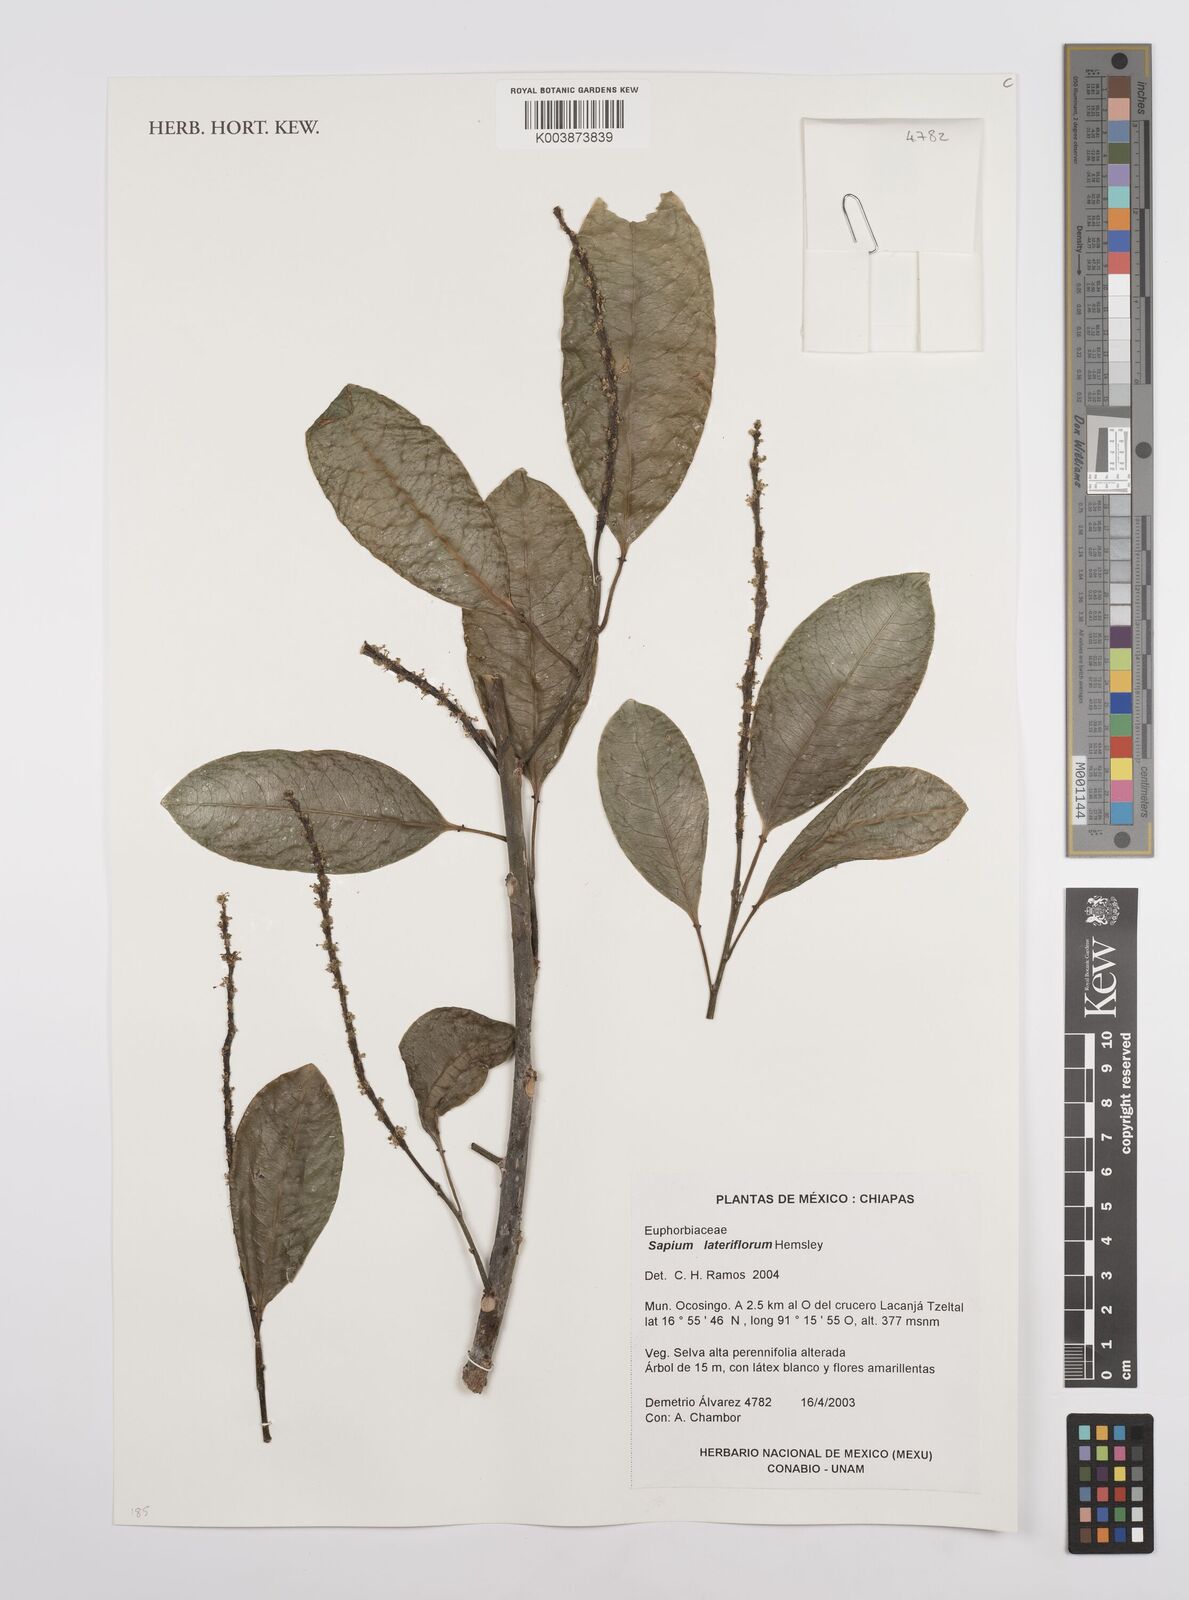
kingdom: Plantae
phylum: Tracheophyta
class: Magnoliopsida
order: Malpighiales
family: Euphorbiaceae
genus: Sapium
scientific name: Sapium lateriflorum
